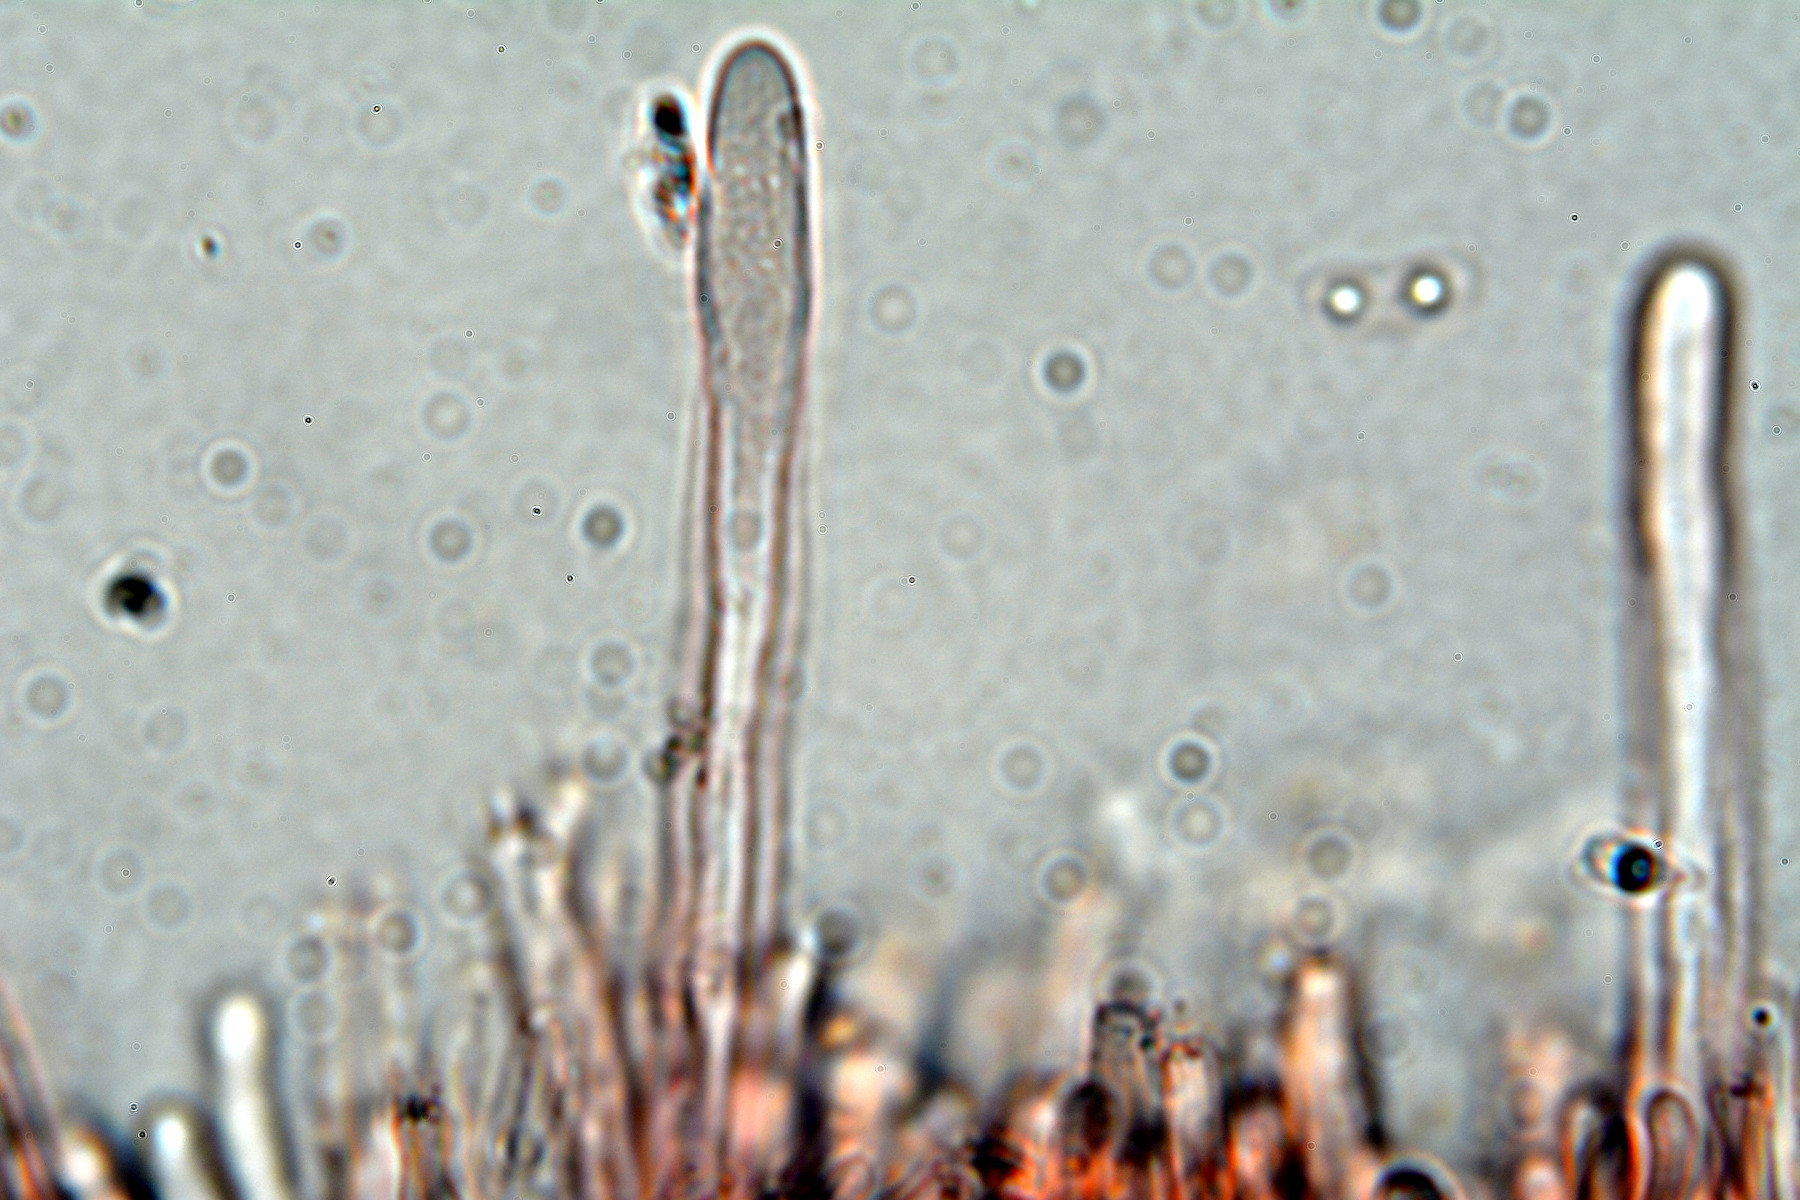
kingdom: Fungi
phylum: Basidiomycota
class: Agaricomycetes
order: Polyporales
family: Dacryobolaceae
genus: Dacryobolus
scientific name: Dacryobolus karstenii
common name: glat vulkanskorpe
